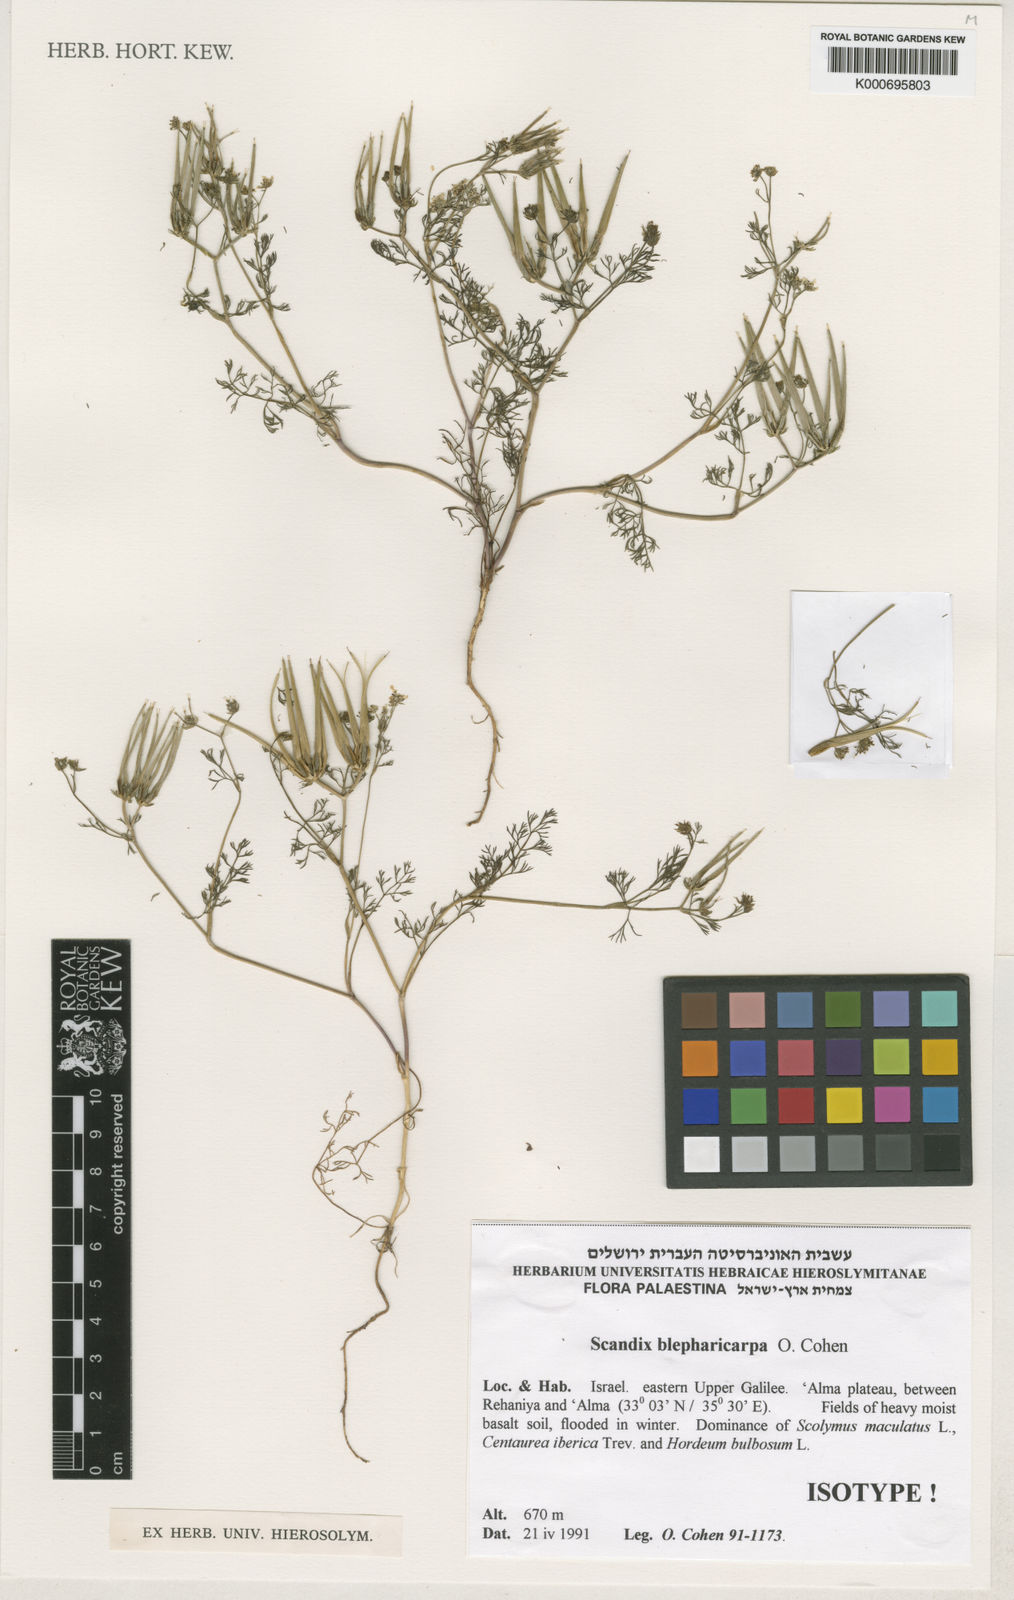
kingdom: Plantae
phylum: Tracheophyta
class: Magnoliopsida
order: Apiales
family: Apiaceae
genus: Scandix
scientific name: Scandix blepharicarpa
